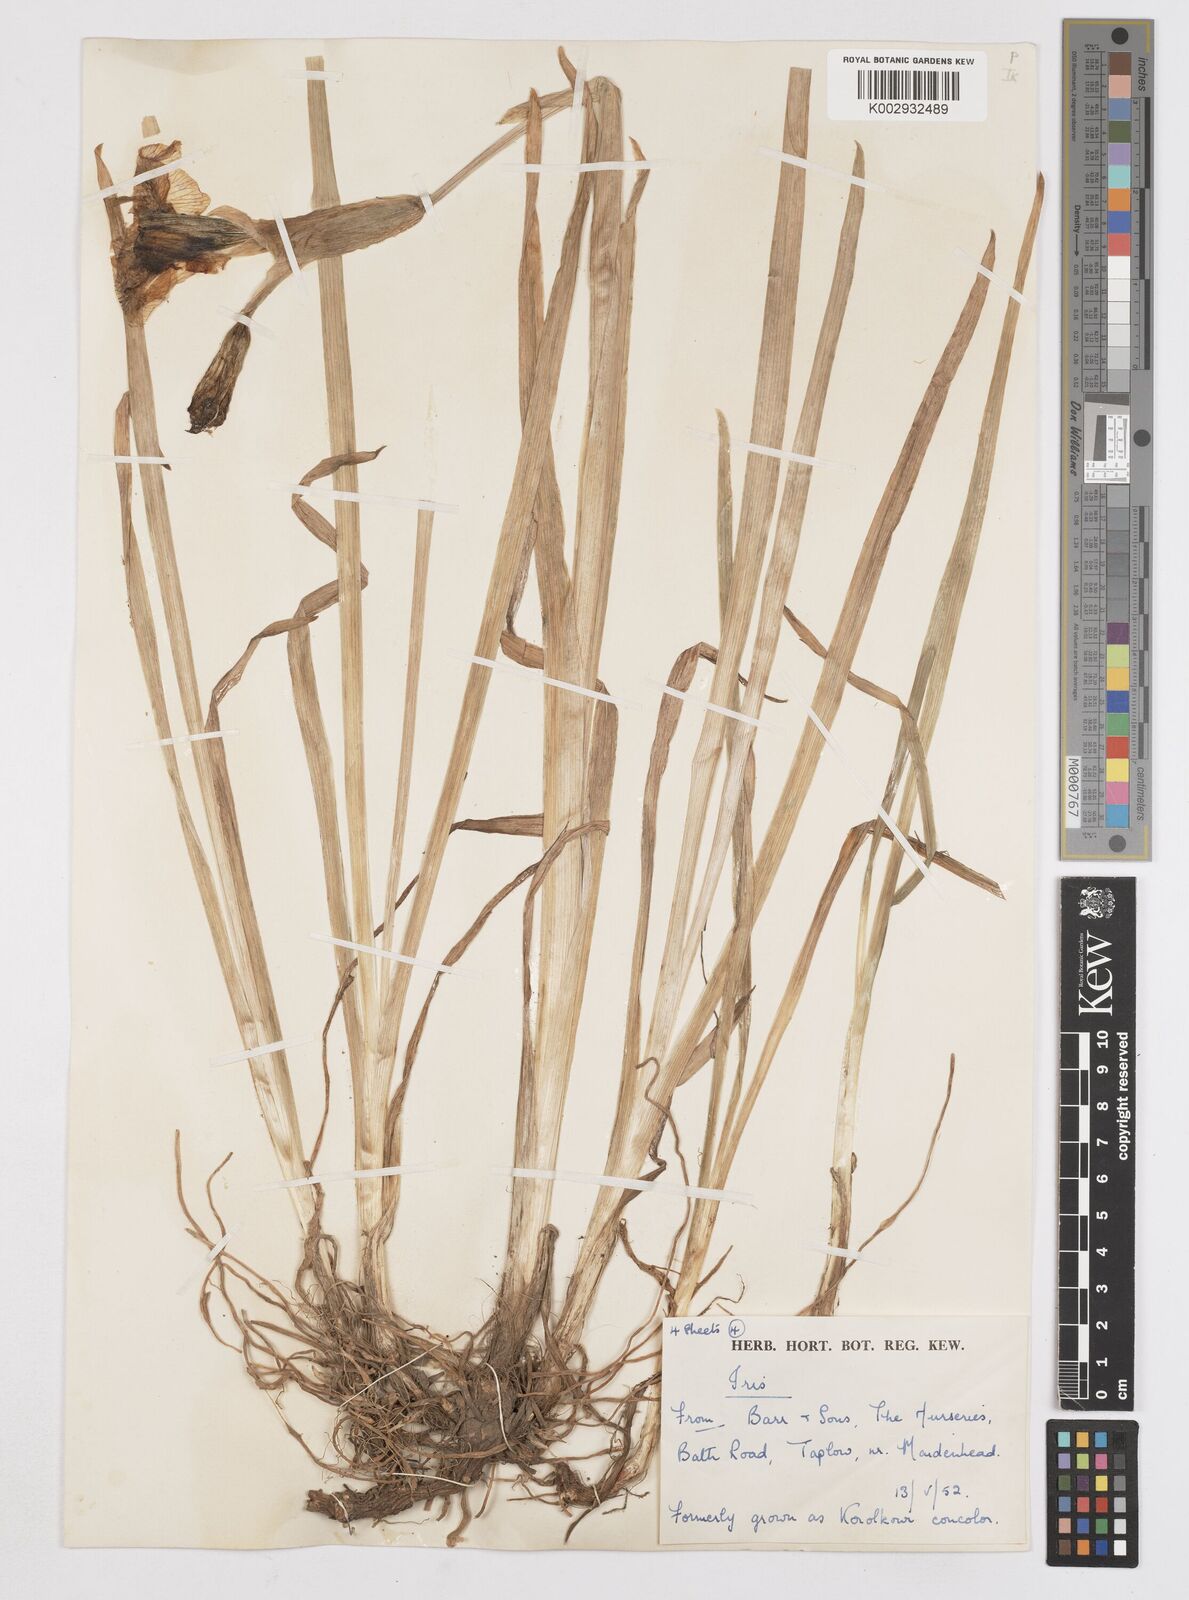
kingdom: Plantae
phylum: Tracheophyta
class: Liliopsida
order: Asparagales
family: Iridaceae
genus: Iris
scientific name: Iris
